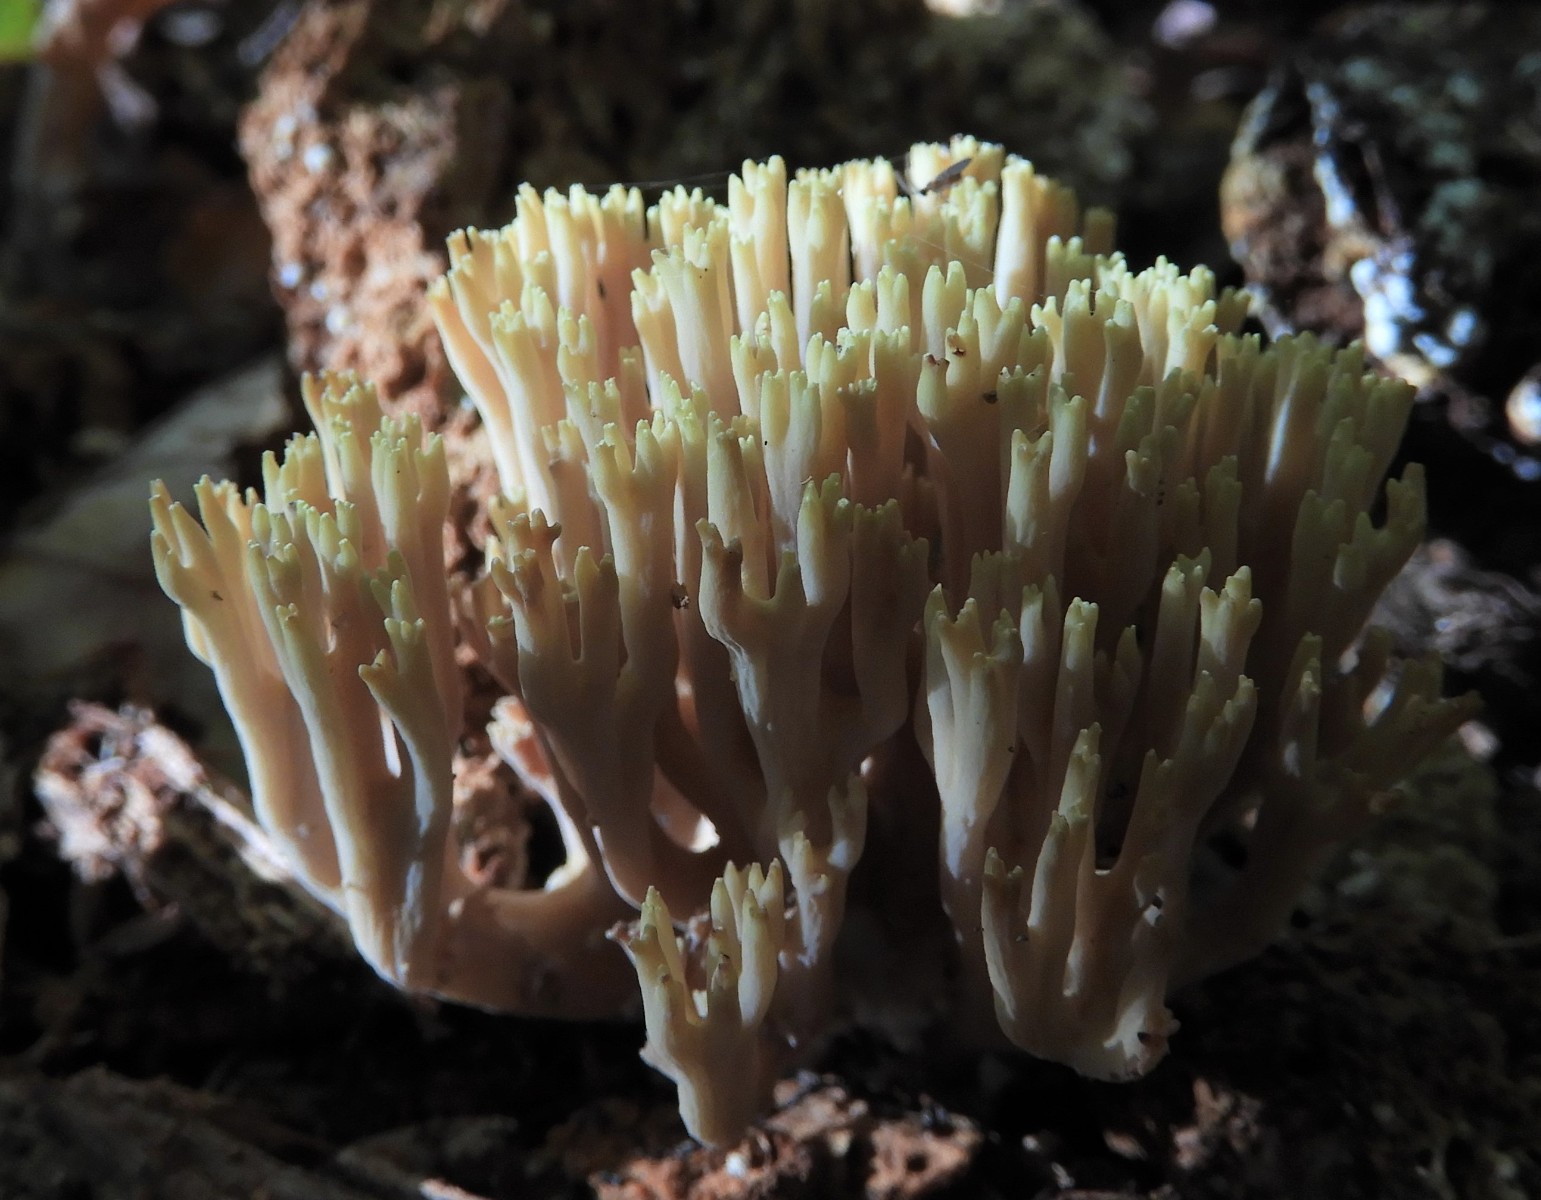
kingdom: Fungi
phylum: Basidiomycota
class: Agaricomycetes
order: Gomphales
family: Gomphaceae
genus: Ramaria
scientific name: Ramaria stricta
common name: rank koralsvamp
